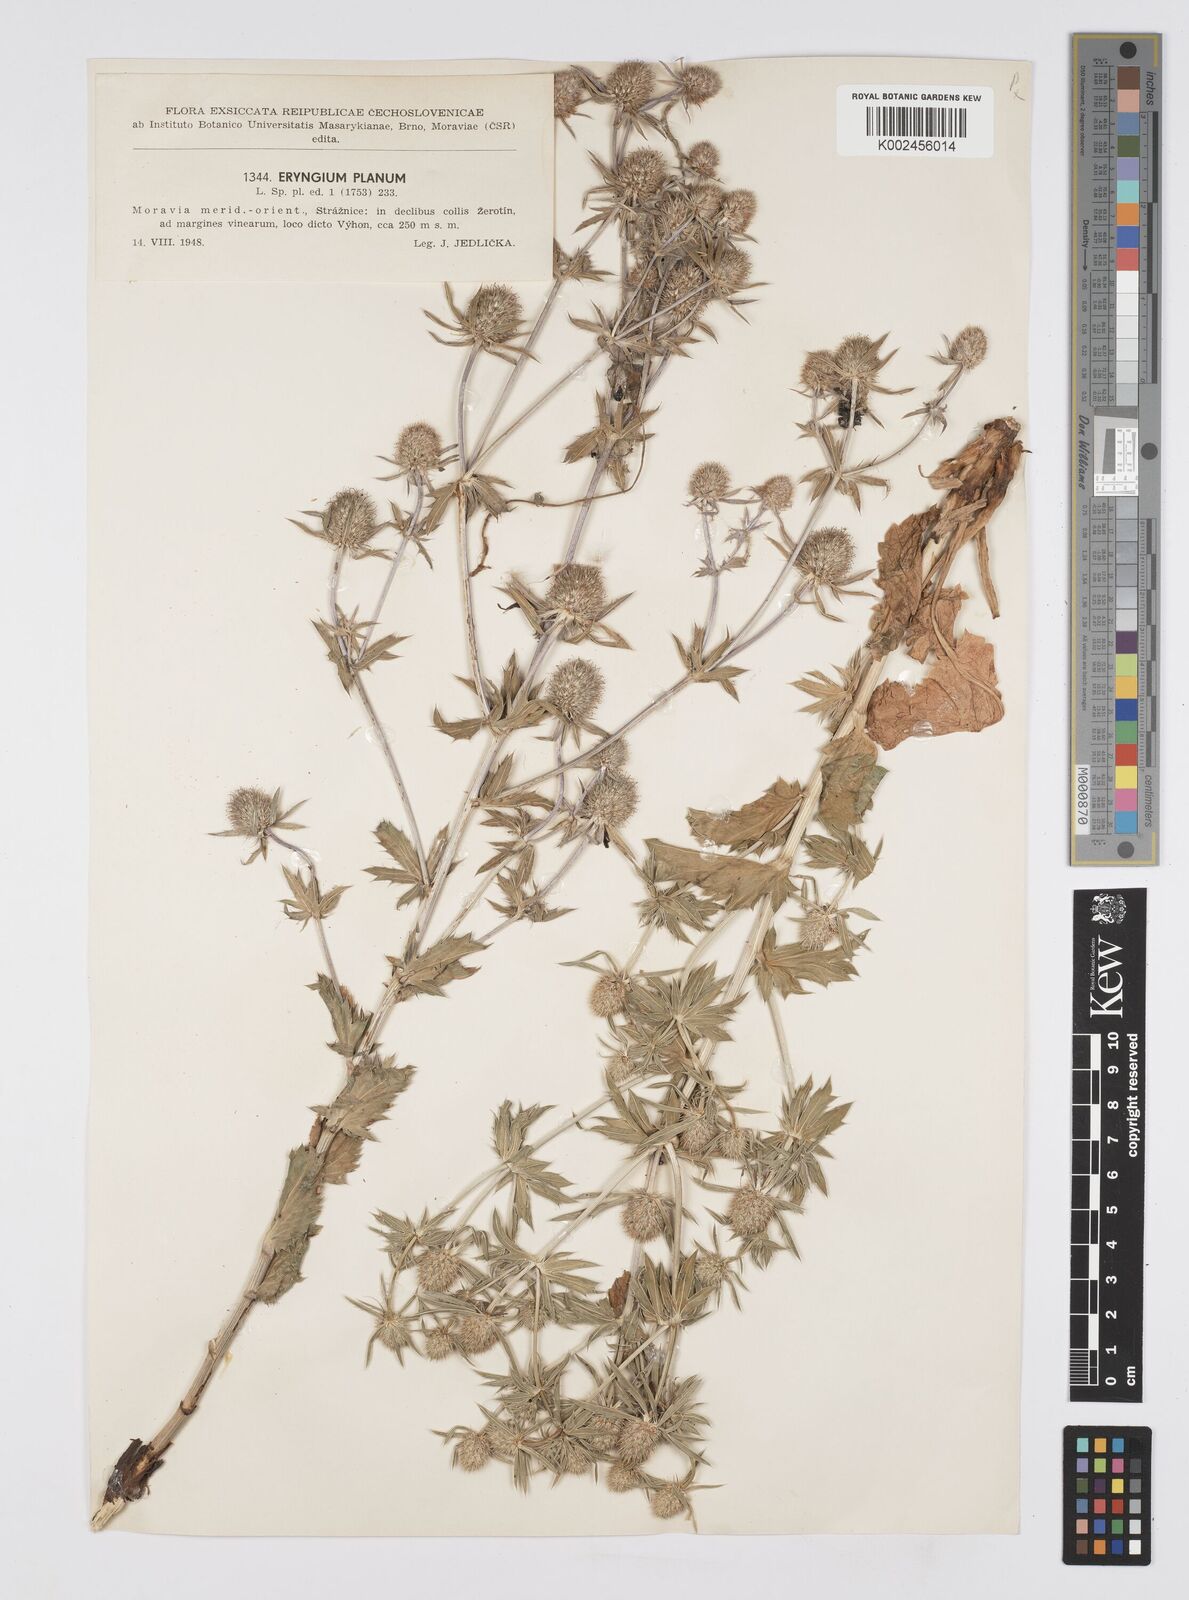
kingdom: Plantae
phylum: Tracheophyta
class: Magnoliopsida
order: Apiales
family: Apiaceae
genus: Eryngium
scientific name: Eryngium planum
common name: Blue eryngo
